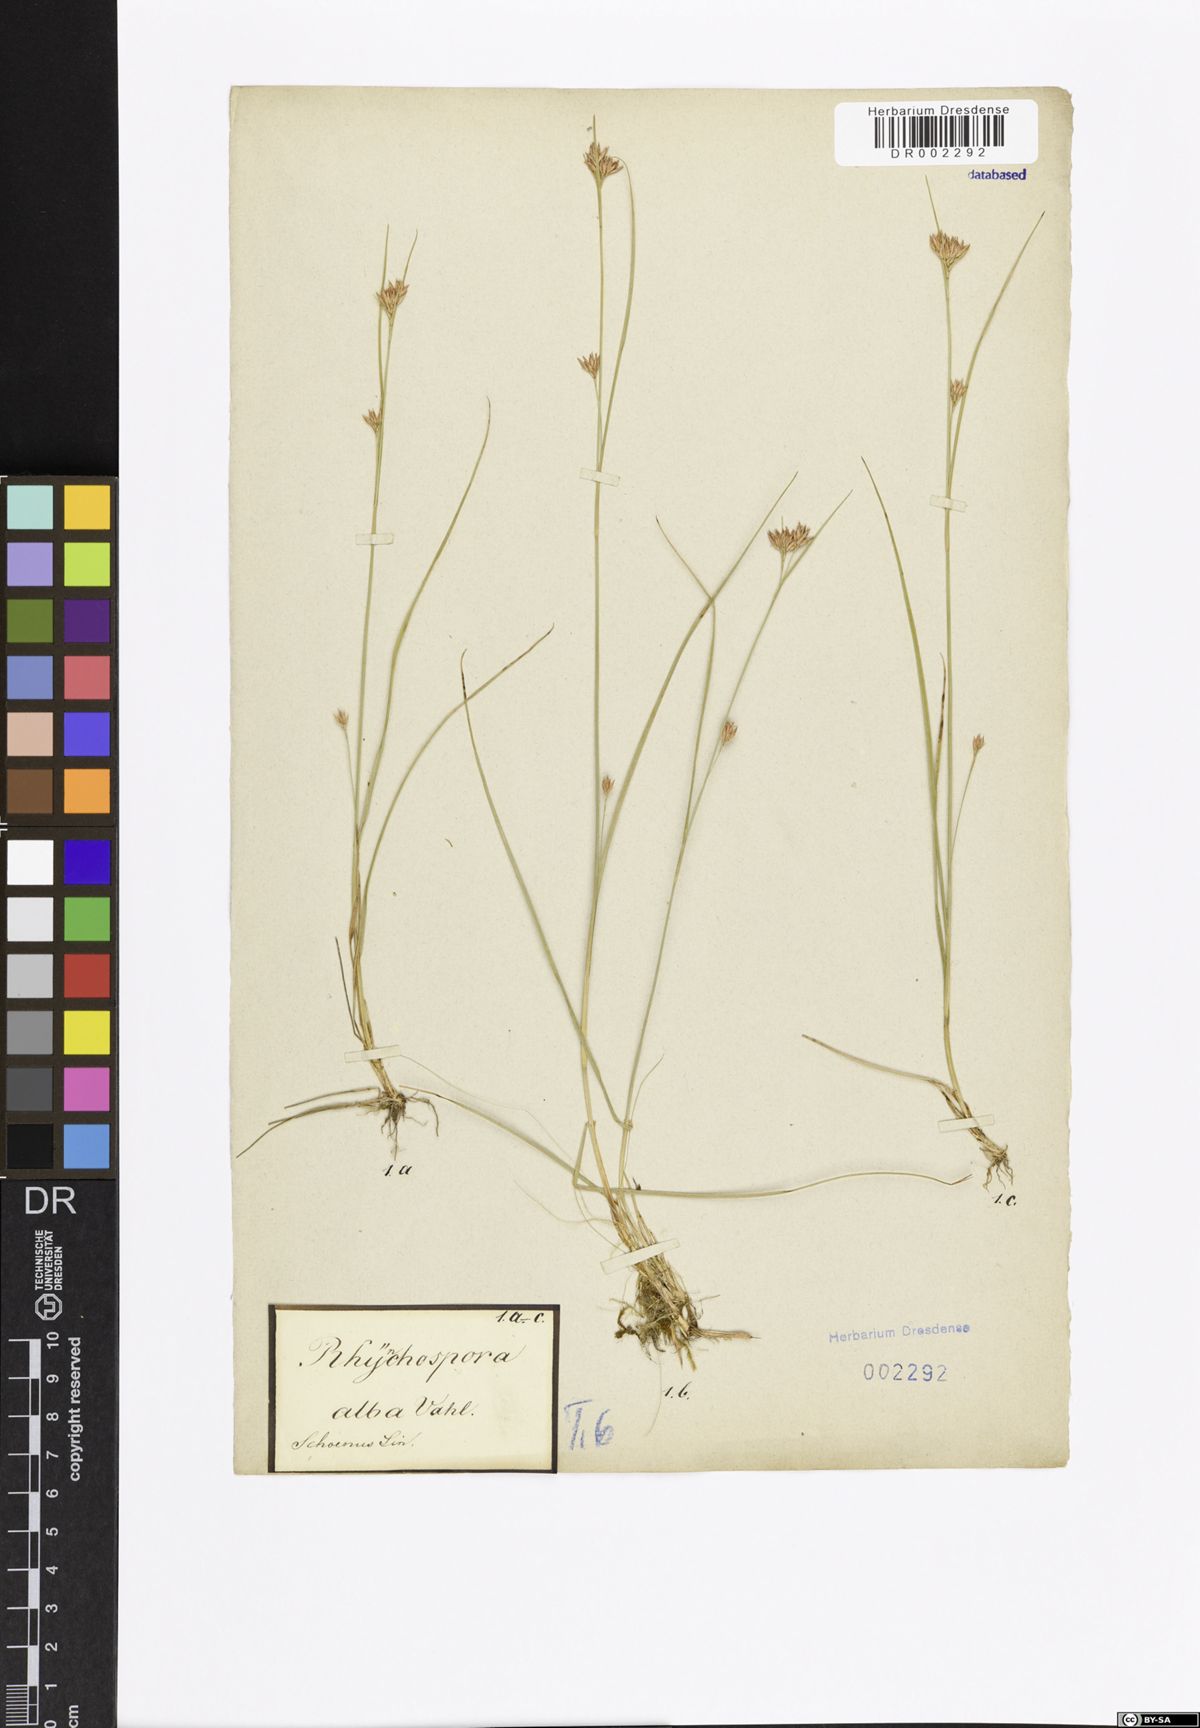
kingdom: Plantae
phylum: Tracheophyta
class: Liliopsida
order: Poales
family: Cyperaceae
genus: Rhynchospora
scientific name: Rhynchospora alba
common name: White beak-sedge
